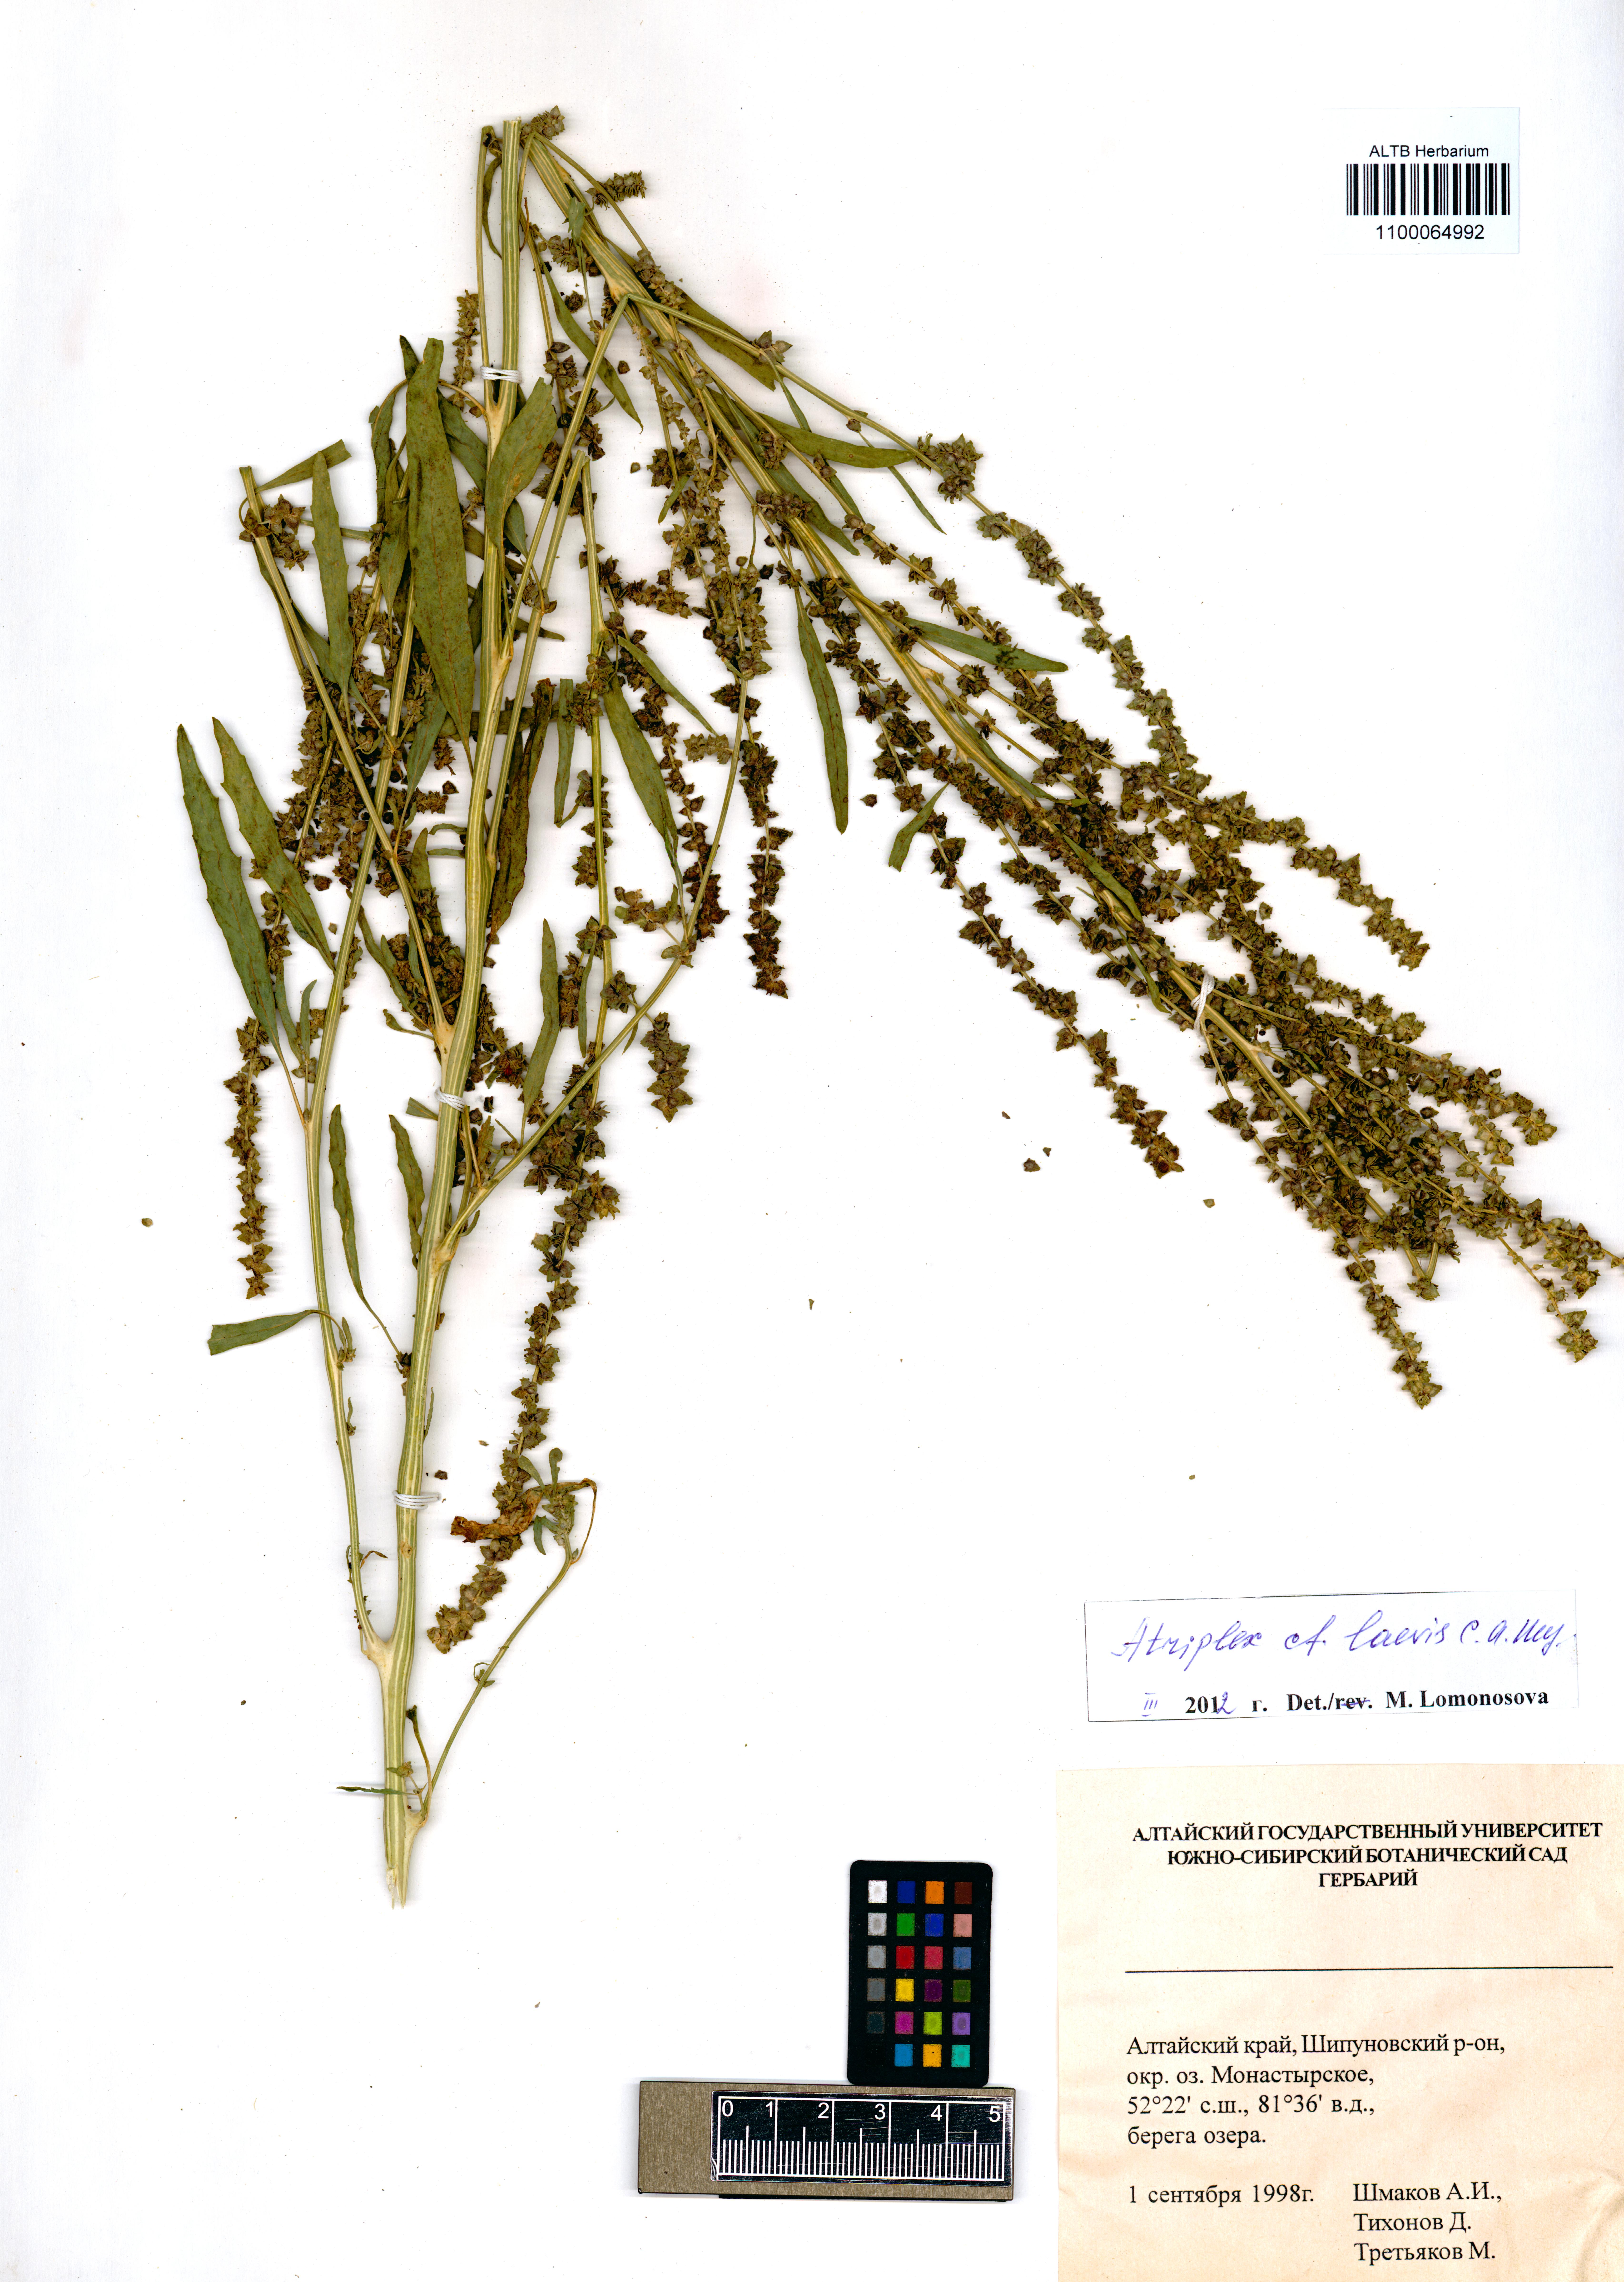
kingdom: Plantae
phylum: Tracheophyta
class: Magnoliopsida
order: Caryophyllales
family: Amaranthaceae
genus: Atriplex
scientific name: Atriplex laevis
